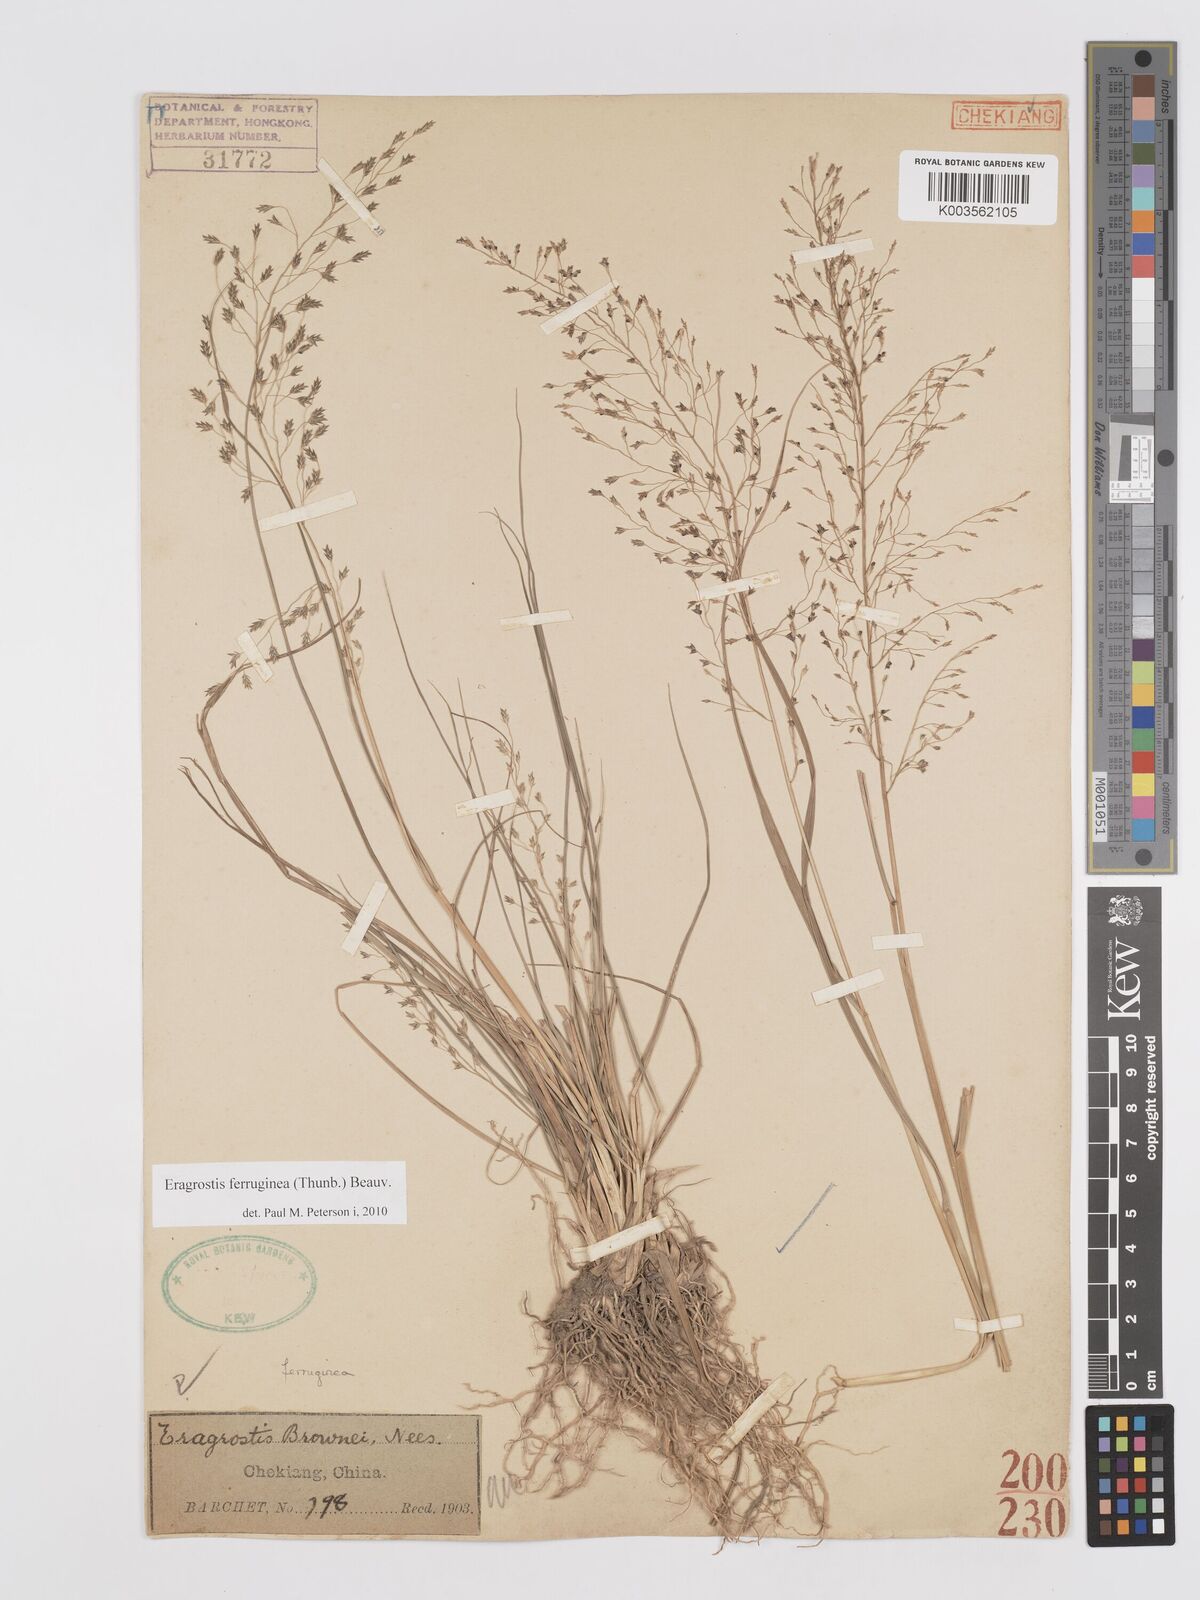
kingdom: Plantae
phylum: Tracheophyta
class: Liliopsida
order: Poales
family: Poaceae
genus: Eragrostis
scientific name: Eragrostis ferruginea
